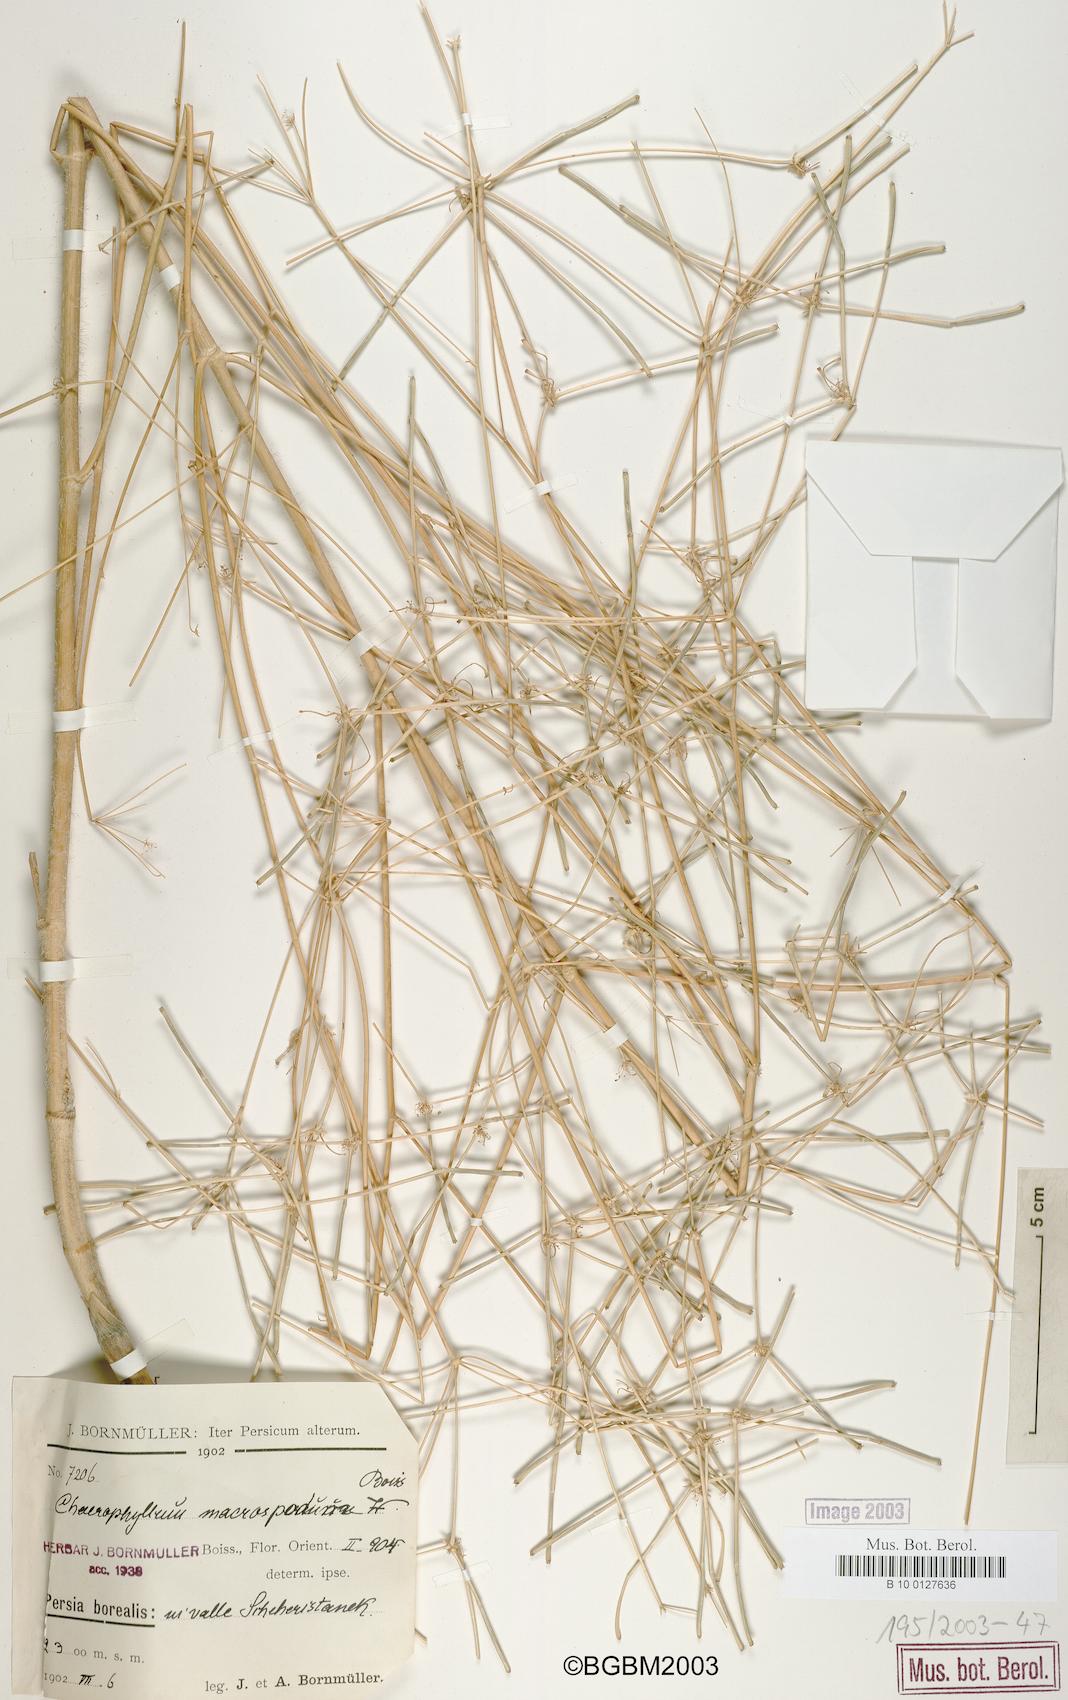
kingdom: Plantae
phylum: Tracheophyta
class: Magnoliopsida
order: Apiales
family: Apiaceae
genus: Chaerophyllum
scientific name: Chaerophyllum macropodum
